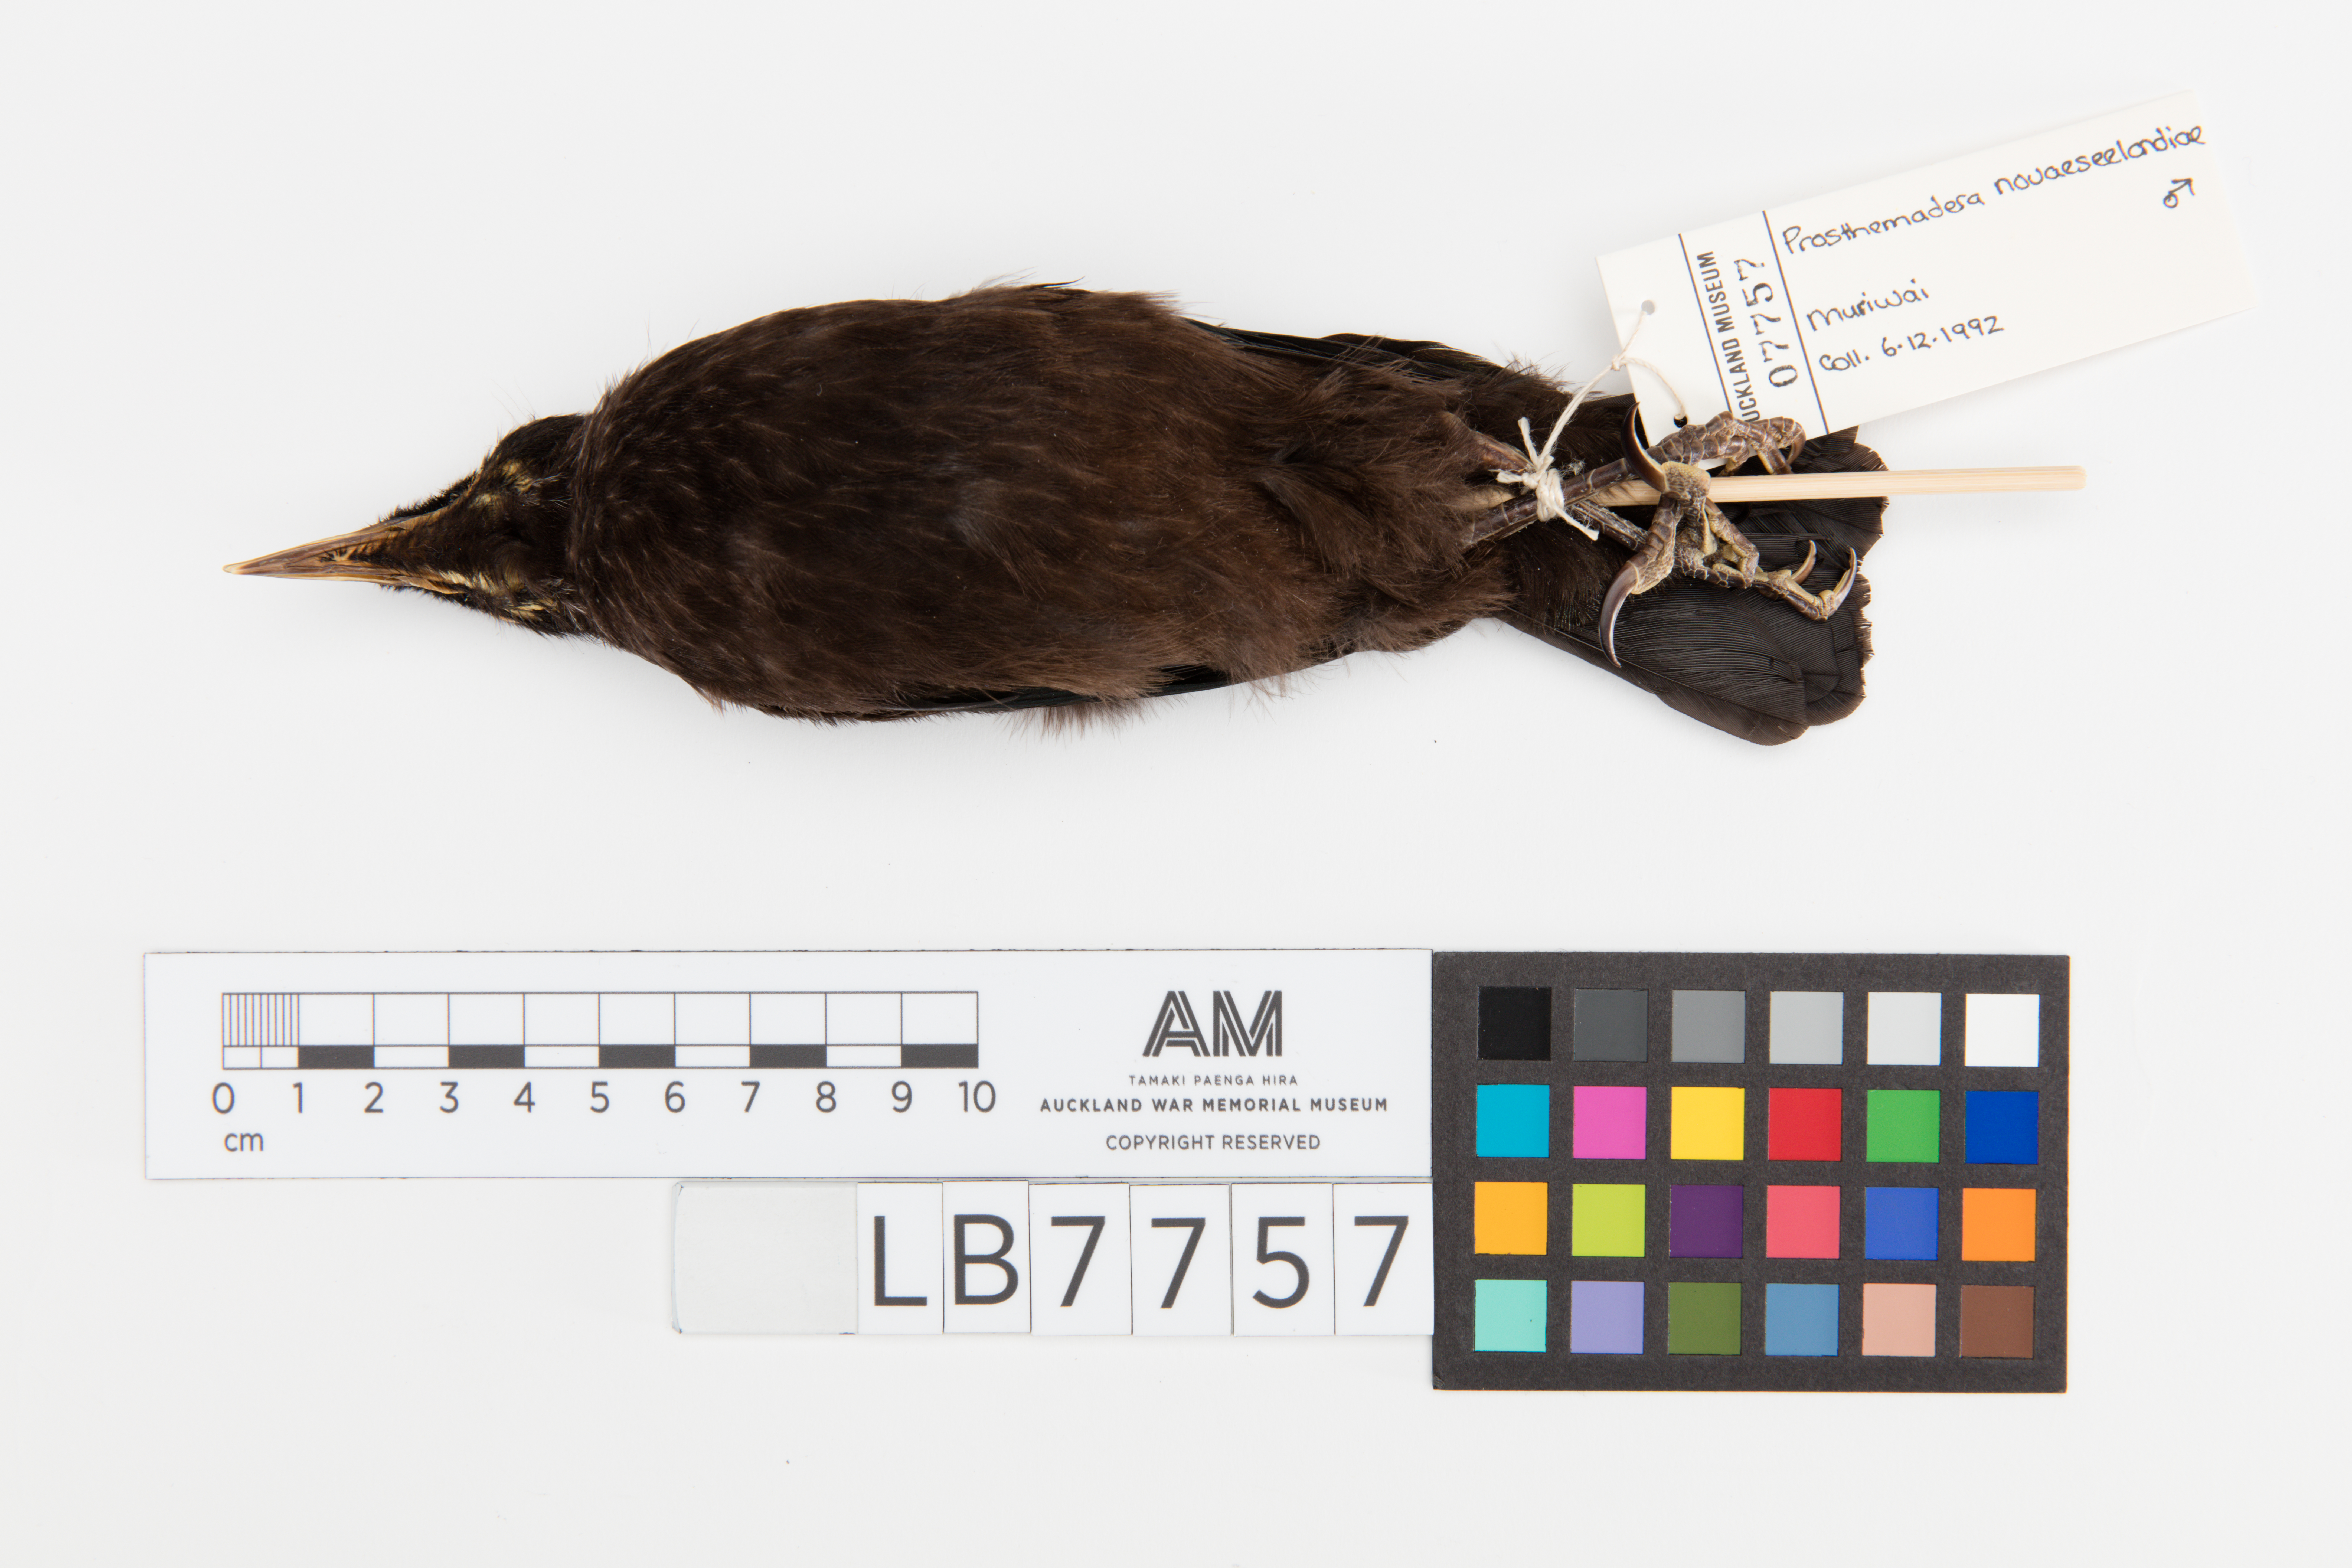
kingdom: Animalia
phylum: Chordata
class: Aves
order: Passeriformes
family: Meliphagidae
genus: Prosthemadera
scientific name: Prosthemadera novaeseelandiae
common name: Tui
